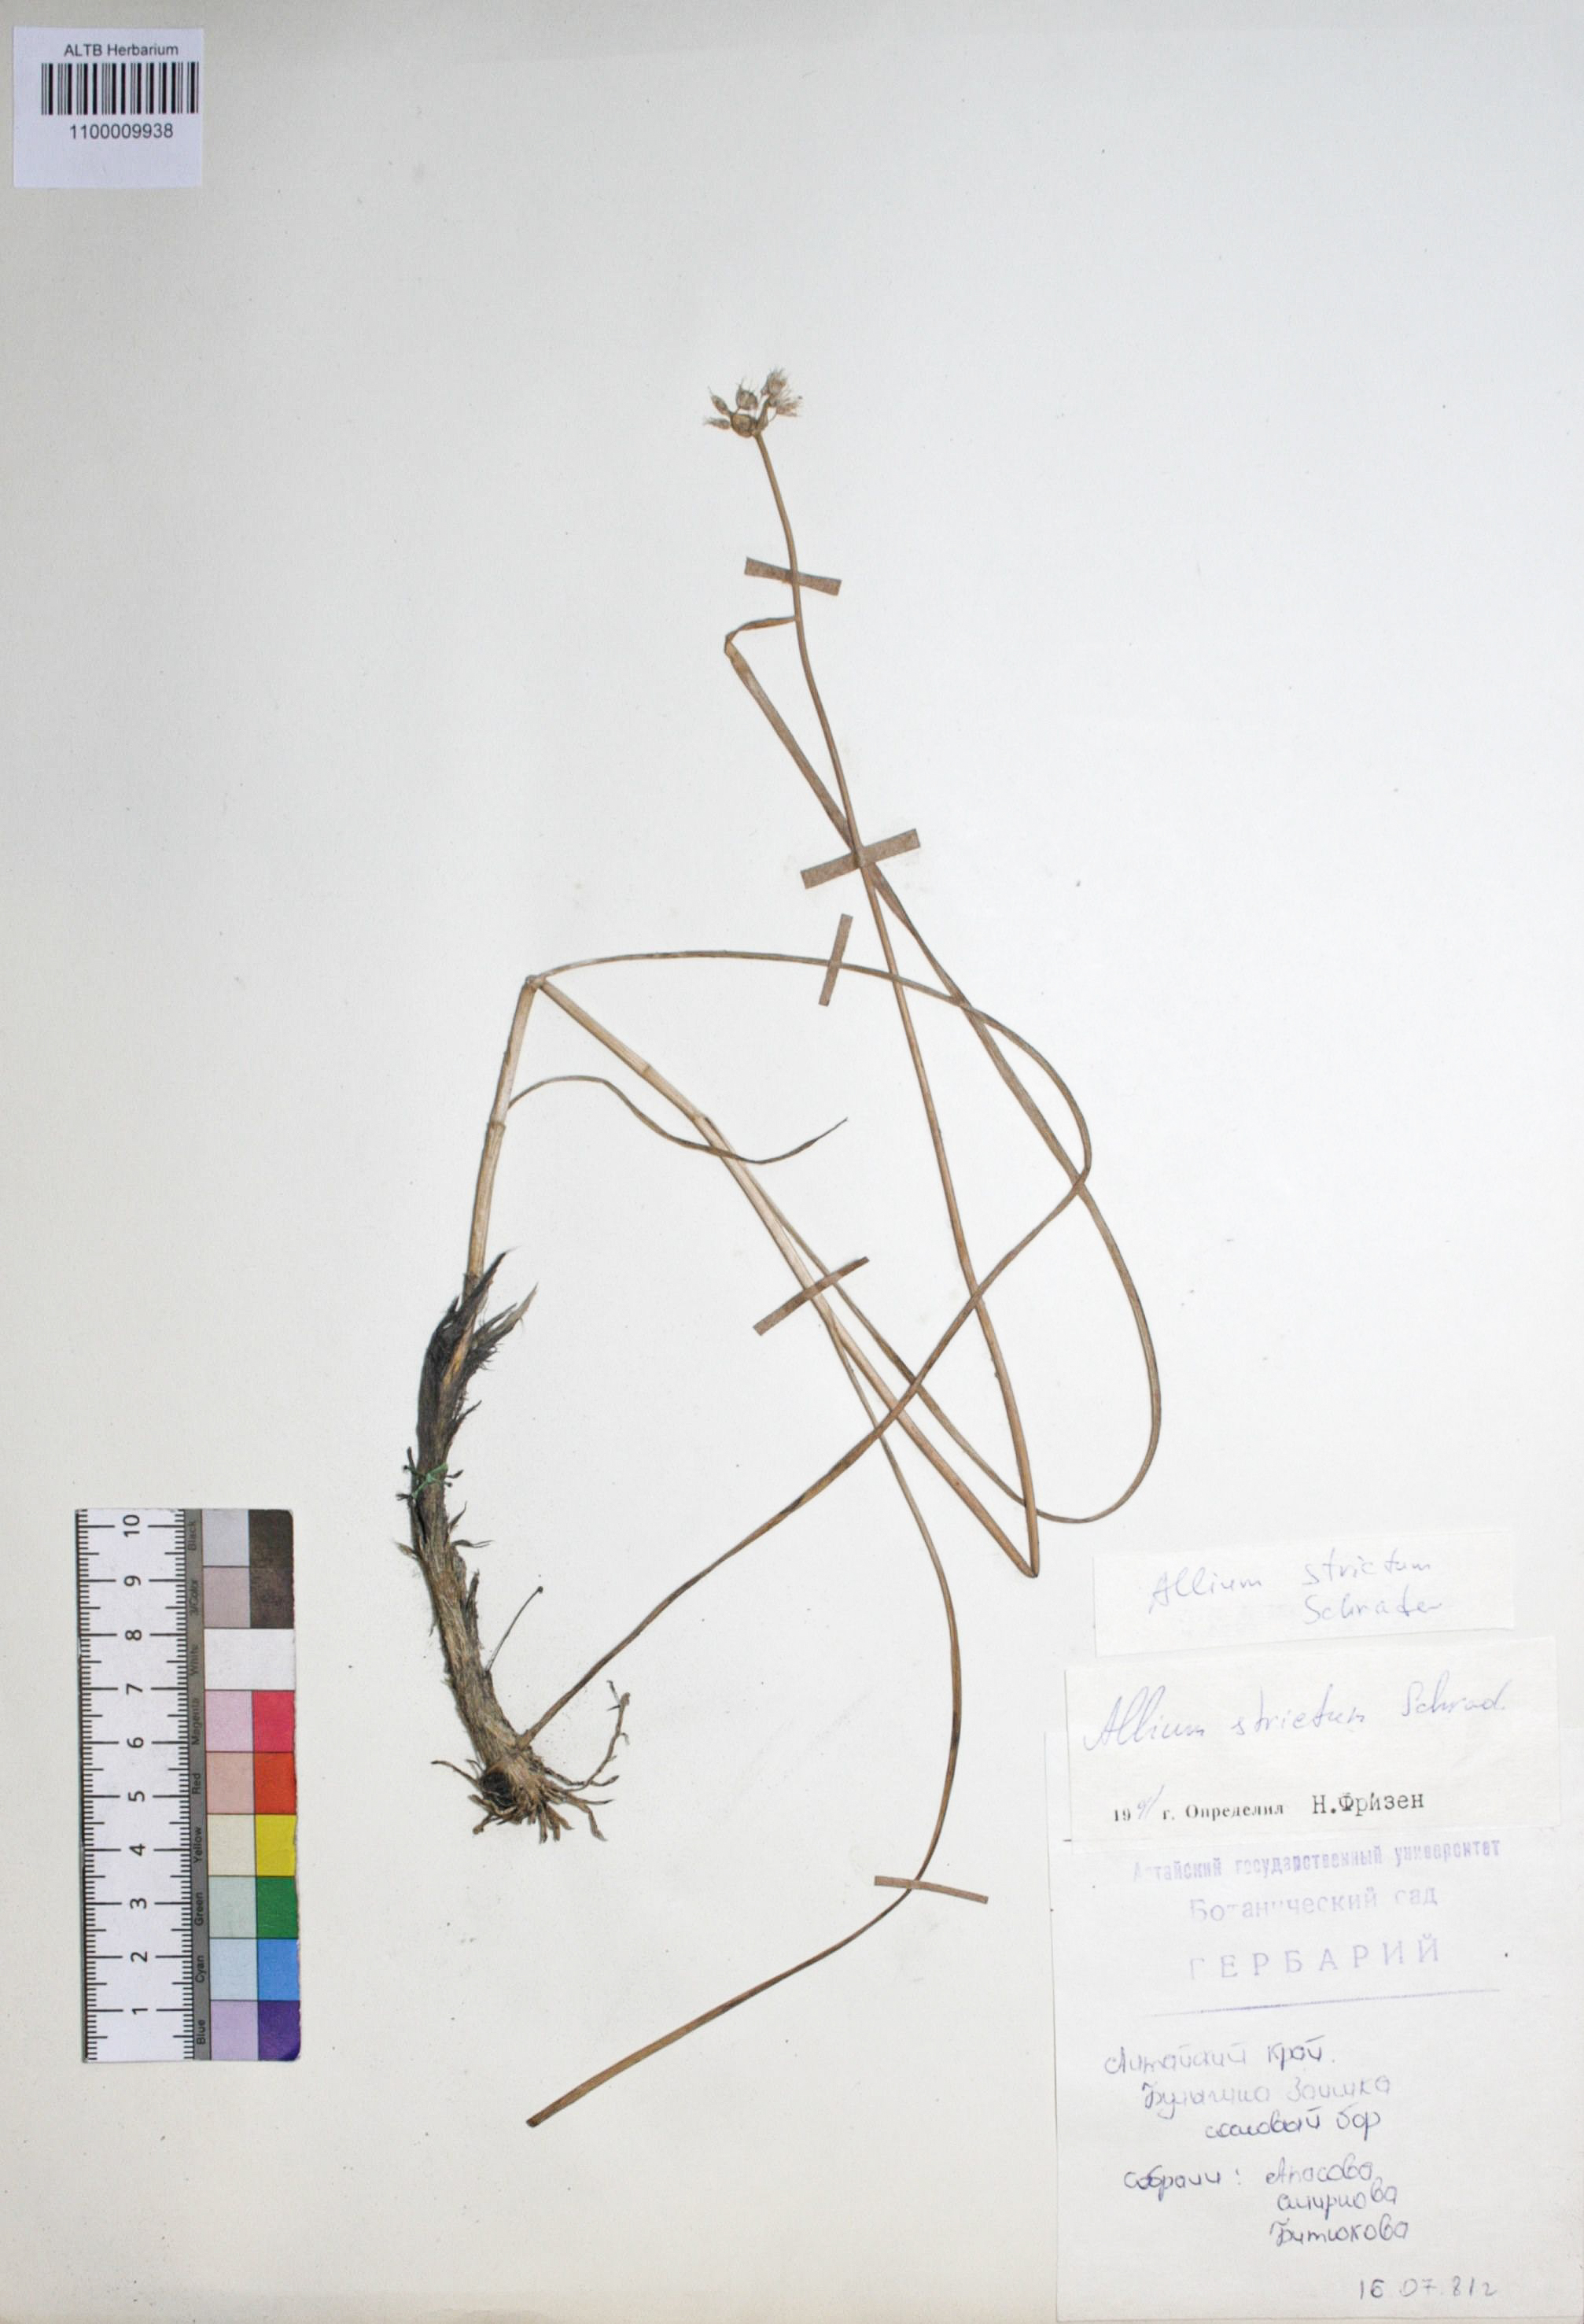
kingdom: Plantae
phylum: Tracheophyta
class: Liliopsida
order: Asparagales
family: Amaryllidaceae
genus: Allium
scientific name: Allium strictum
